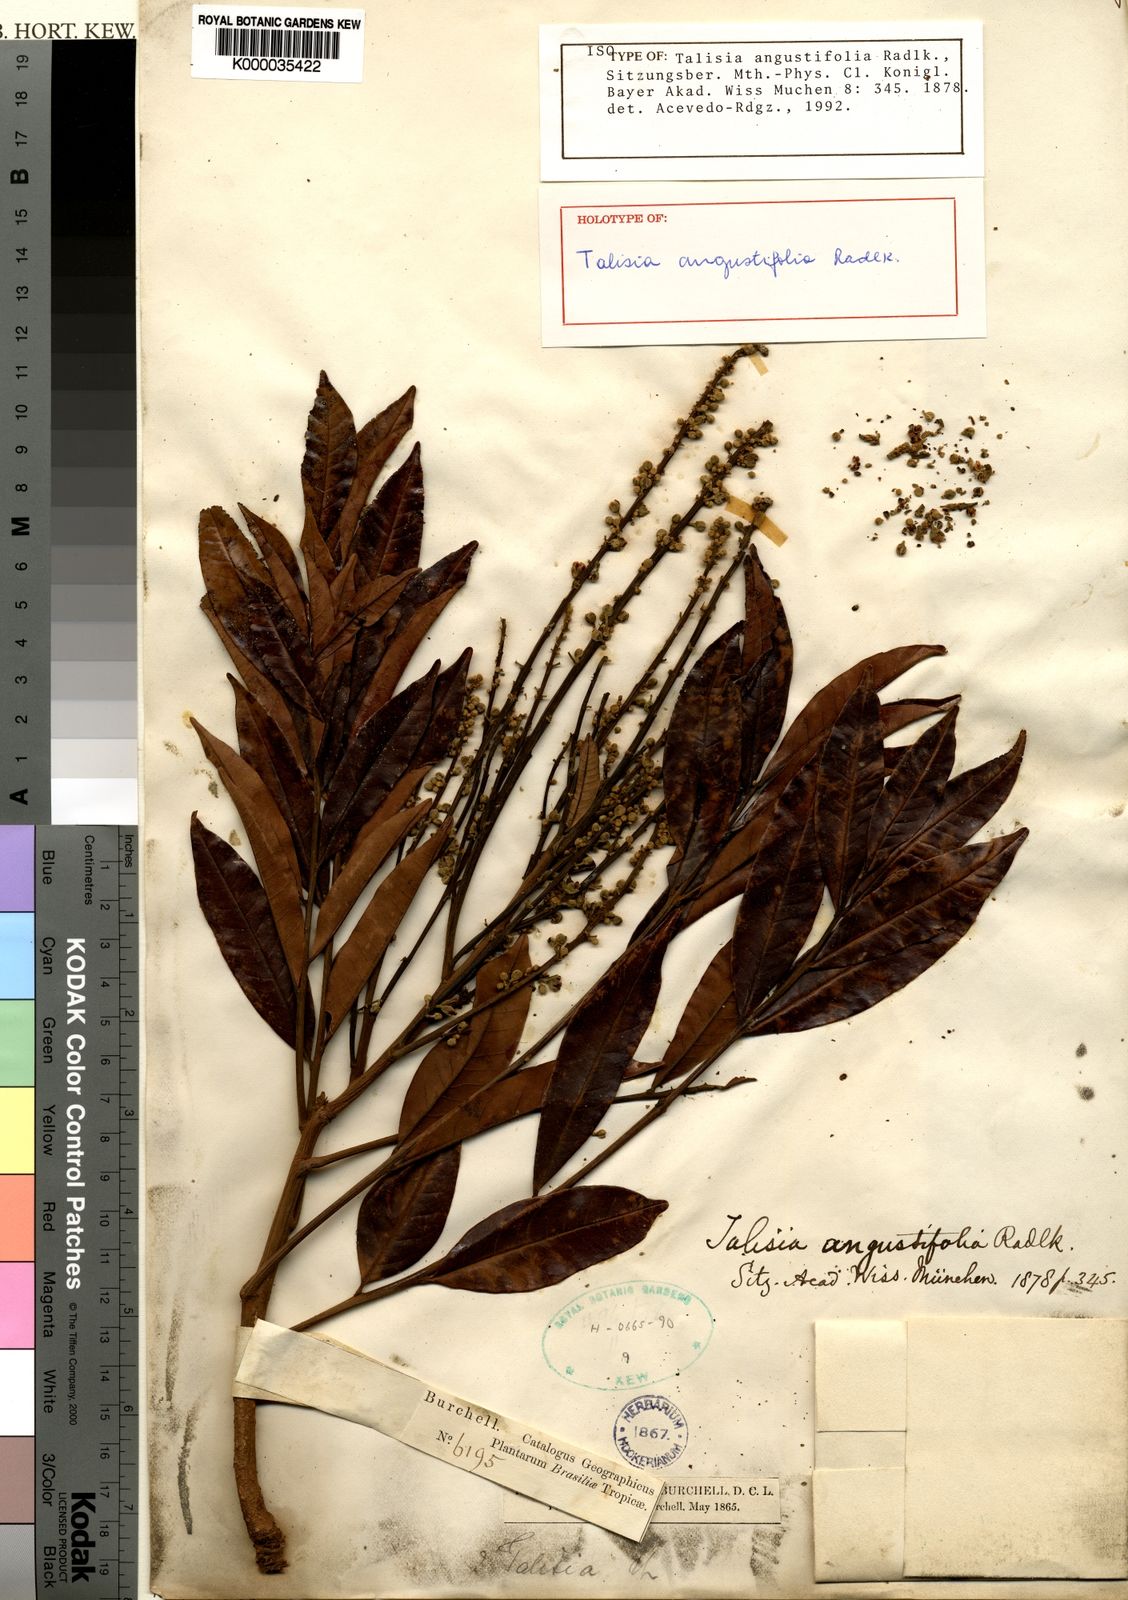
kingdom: Plantae
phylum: Tracheophyta
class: Magnoliopsida
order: Sapindales
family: Sapindaceae
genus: Talisia
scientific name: Talisia angustifolia
